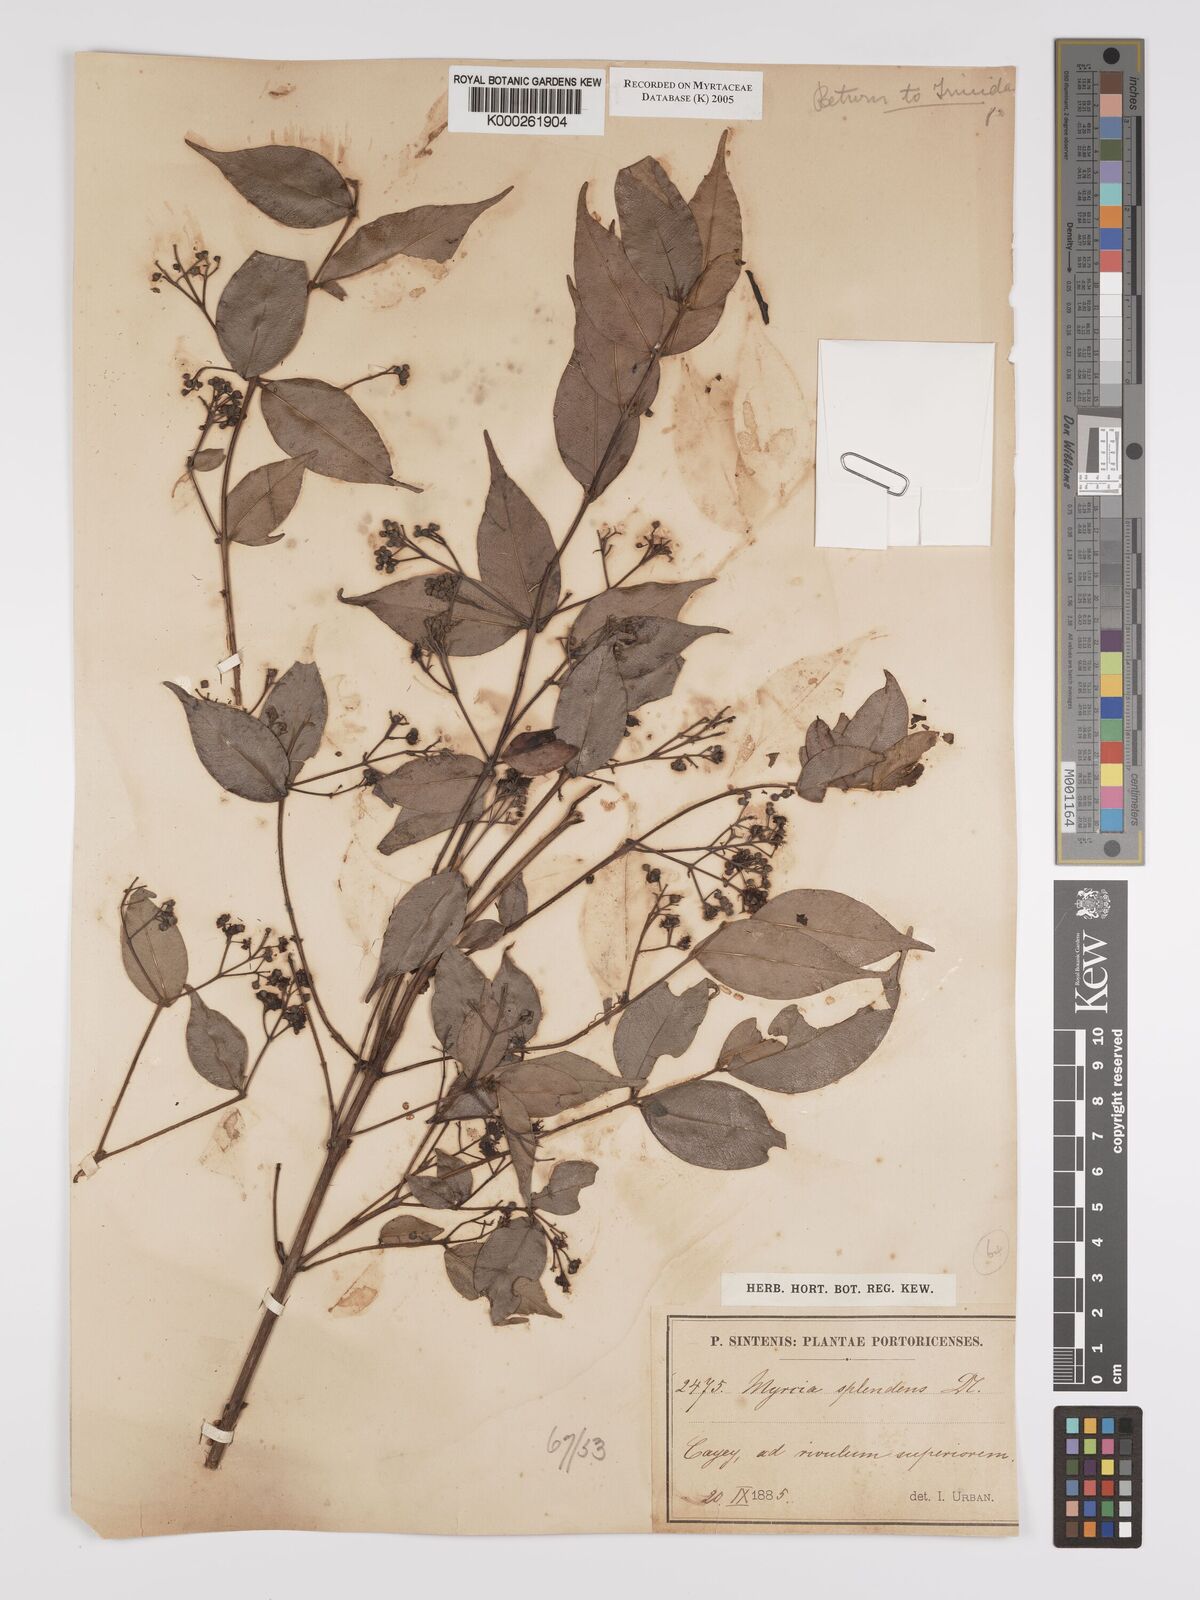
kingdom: Plantae
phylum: Tracheophyta
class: Magnoliopsida
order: Myrtales
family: Myrtaceae
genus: Myrcia
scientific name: Myrcia splendens
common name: Surinam cherry
